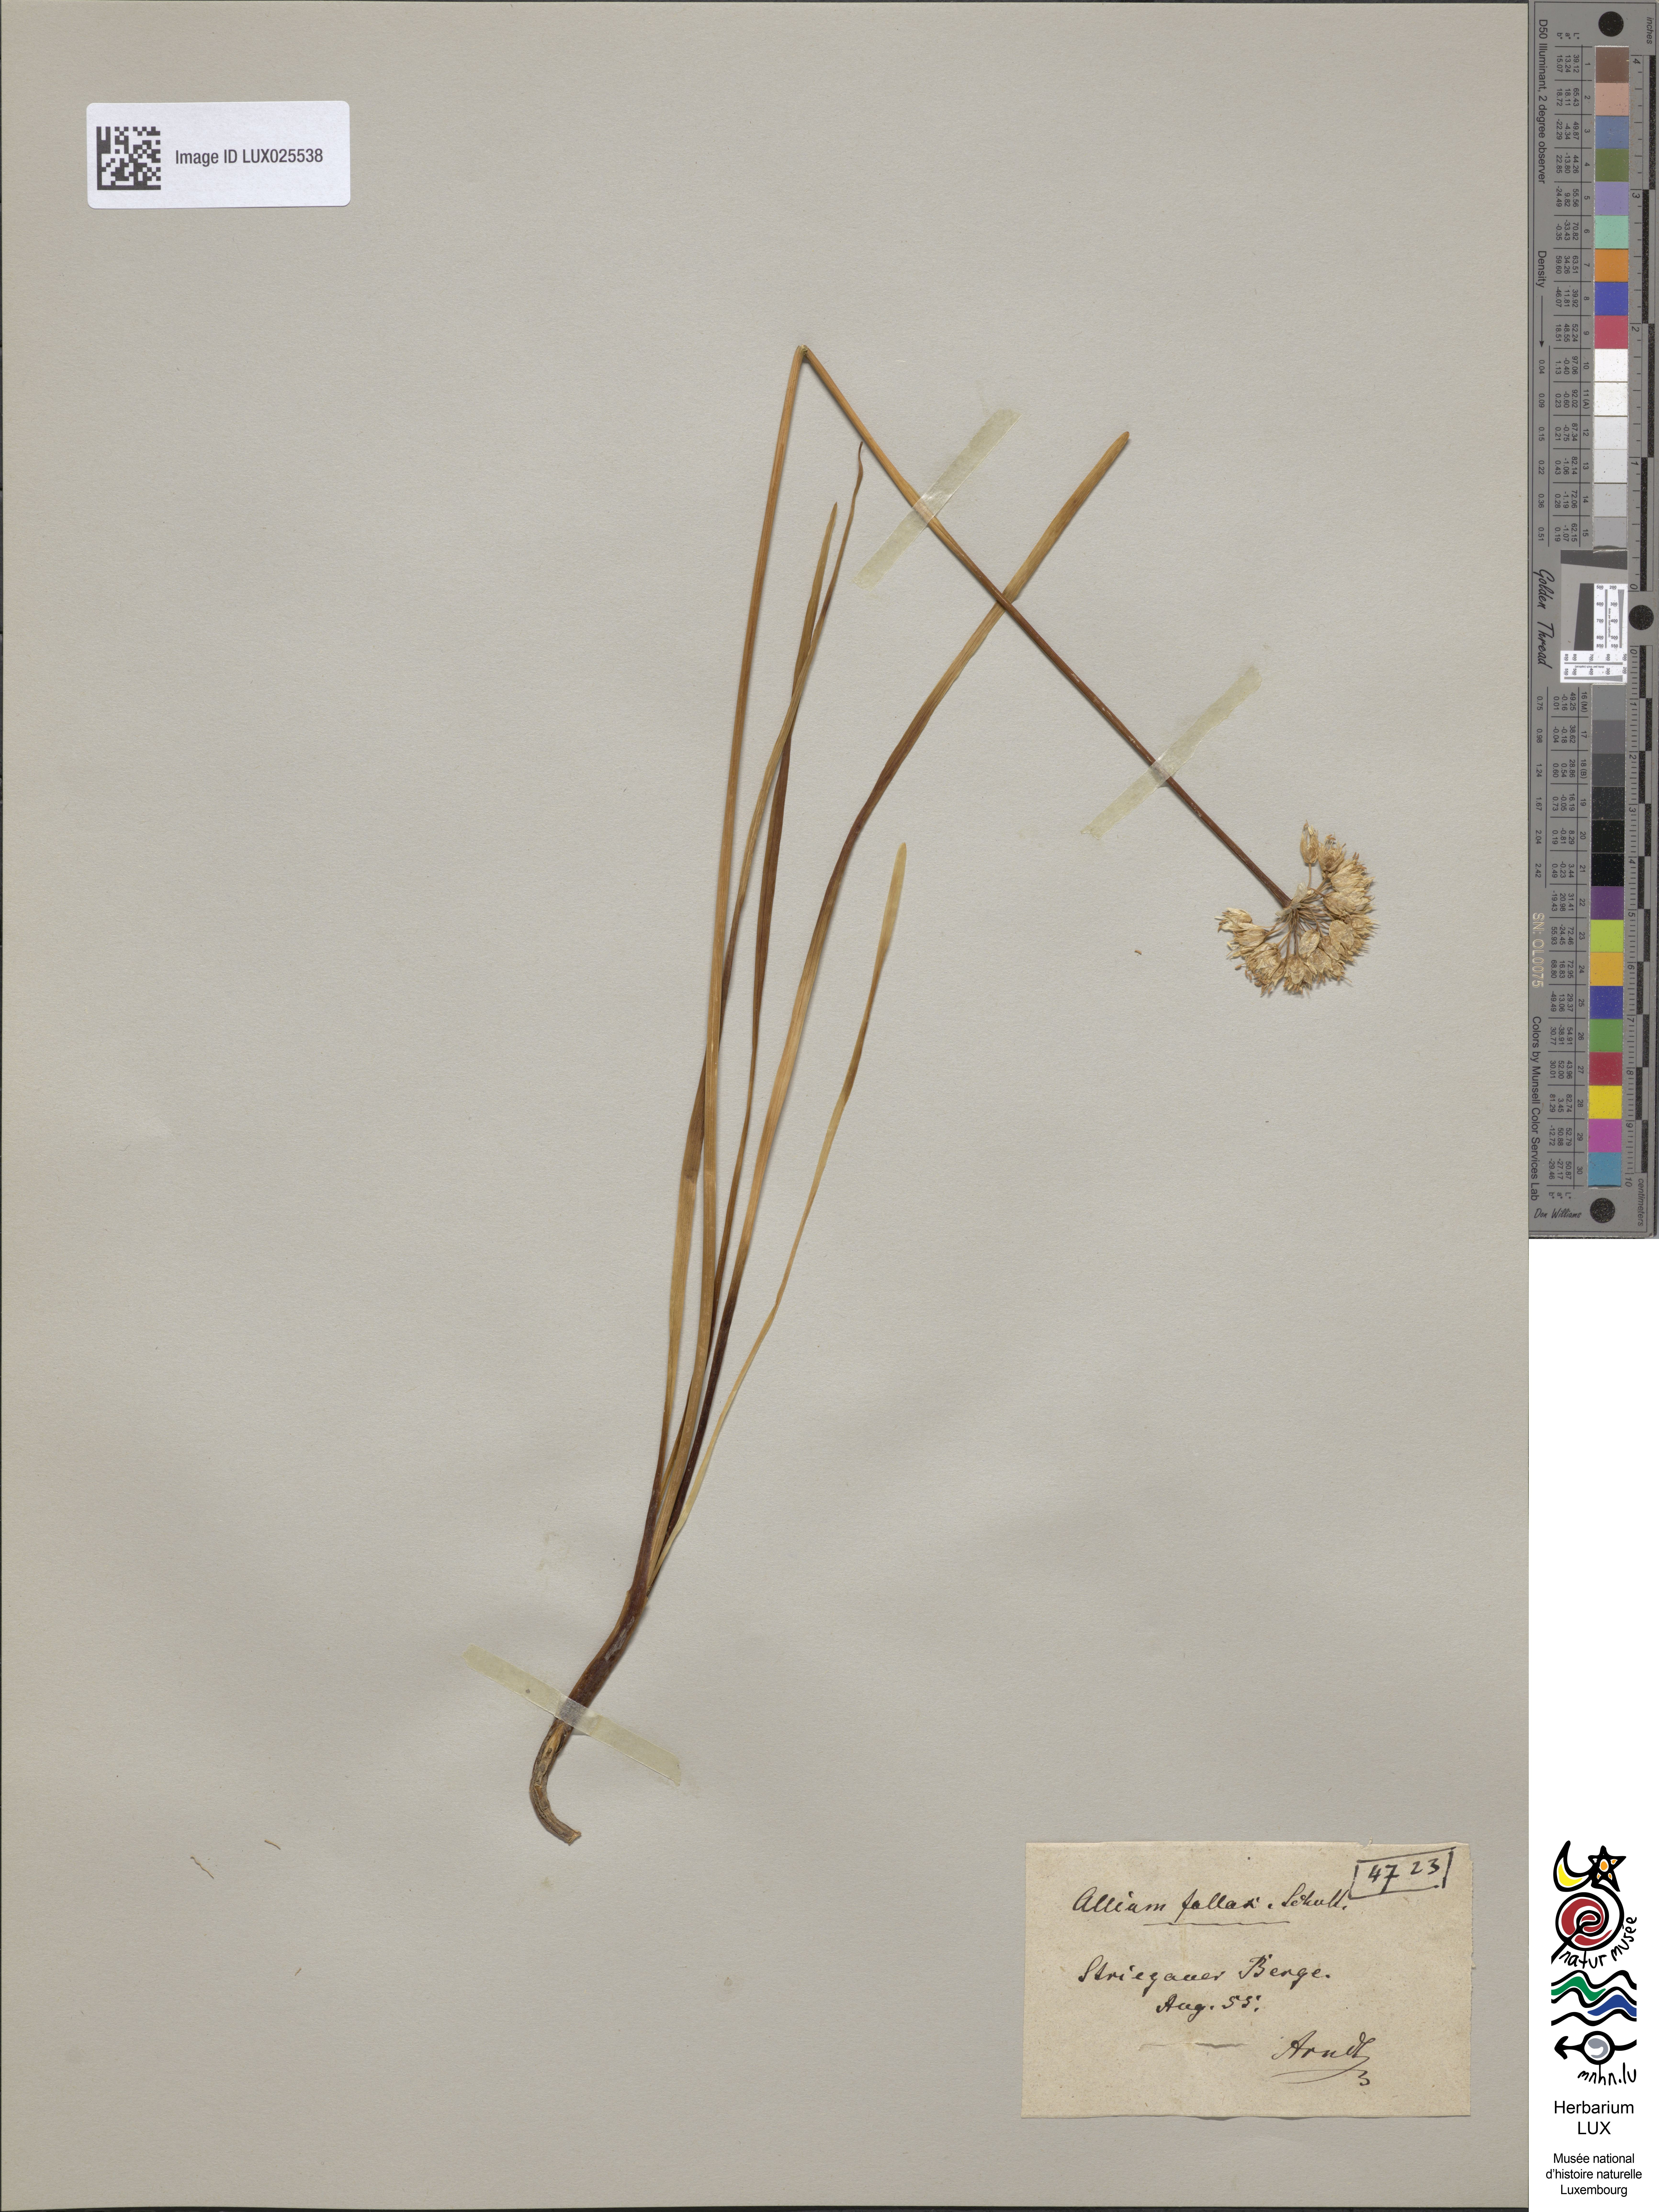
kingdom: Plantae
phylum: Tracheophyta
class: Liliopsida
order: Asparagales
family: Amaryllidaceae
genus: Allium
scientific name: Allium lusitanicum
